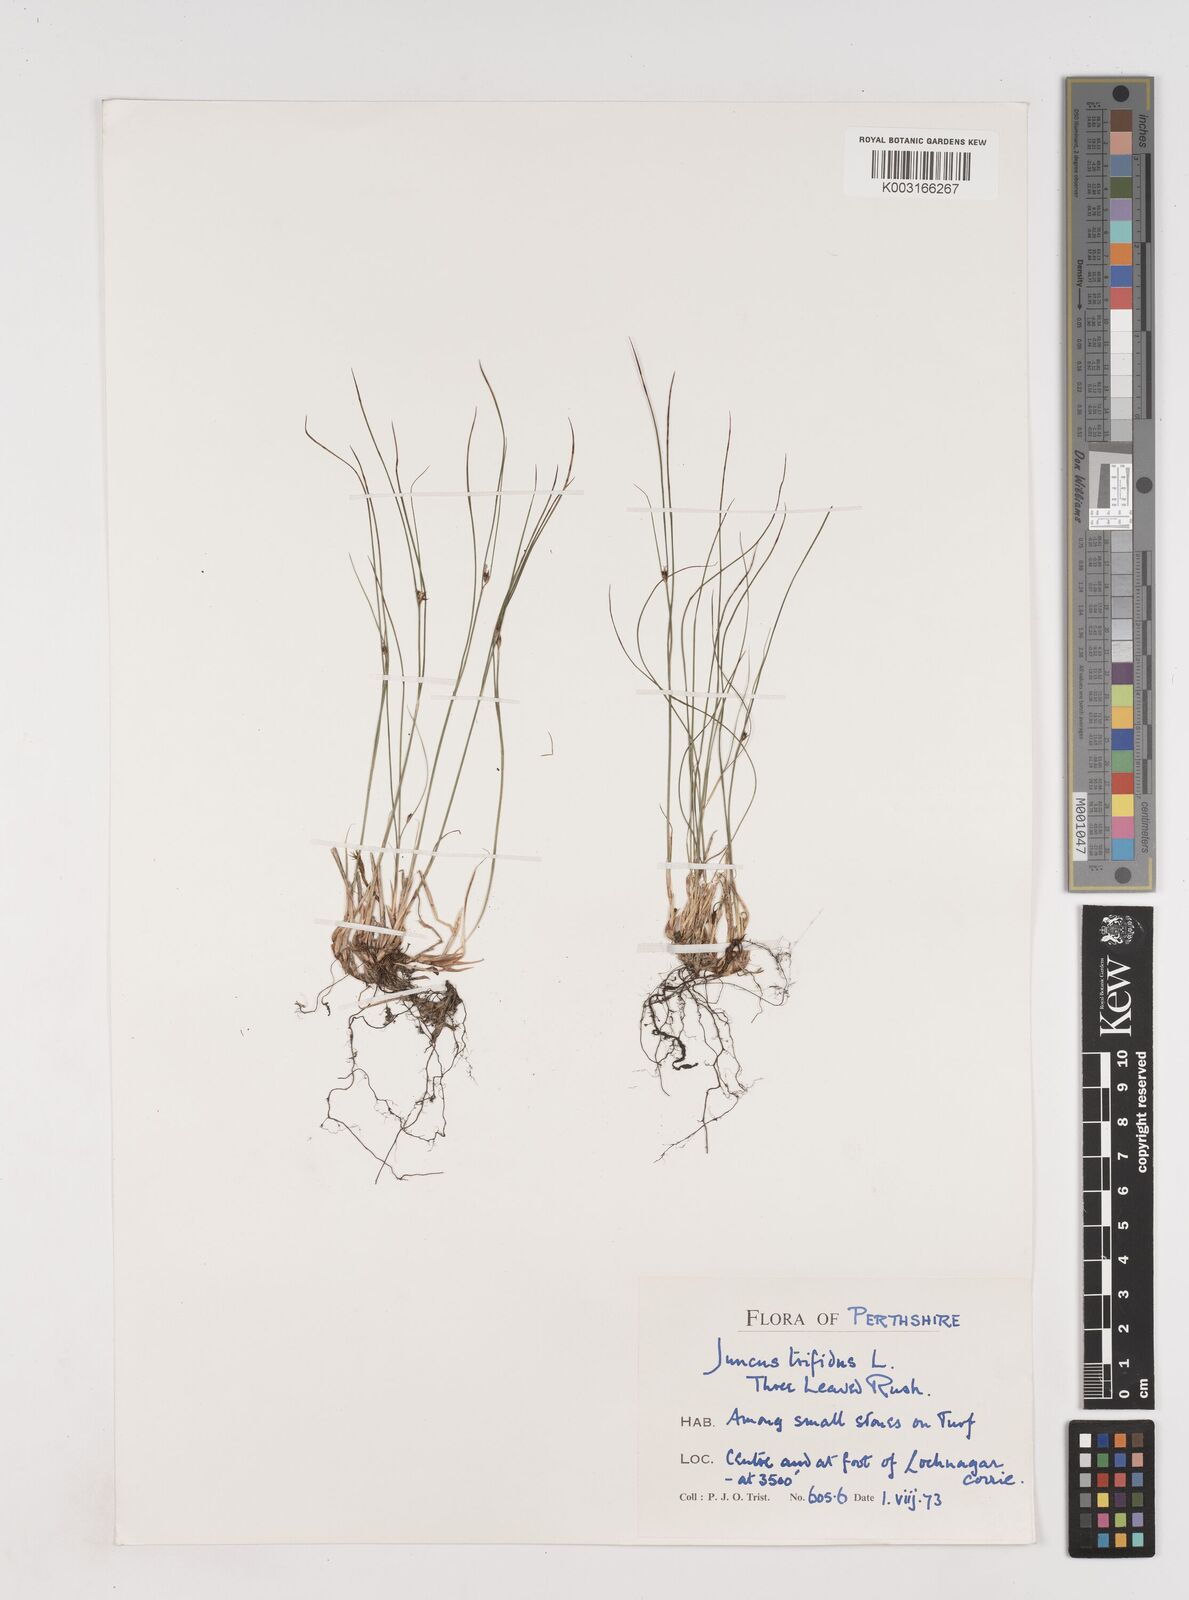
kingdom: Plantae
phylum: Tracheophyta
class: Liliopsida
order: Poales
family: Juncaceae
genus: Oreojuncus
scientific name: Oreojuncus trifidus
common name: Highland rush
